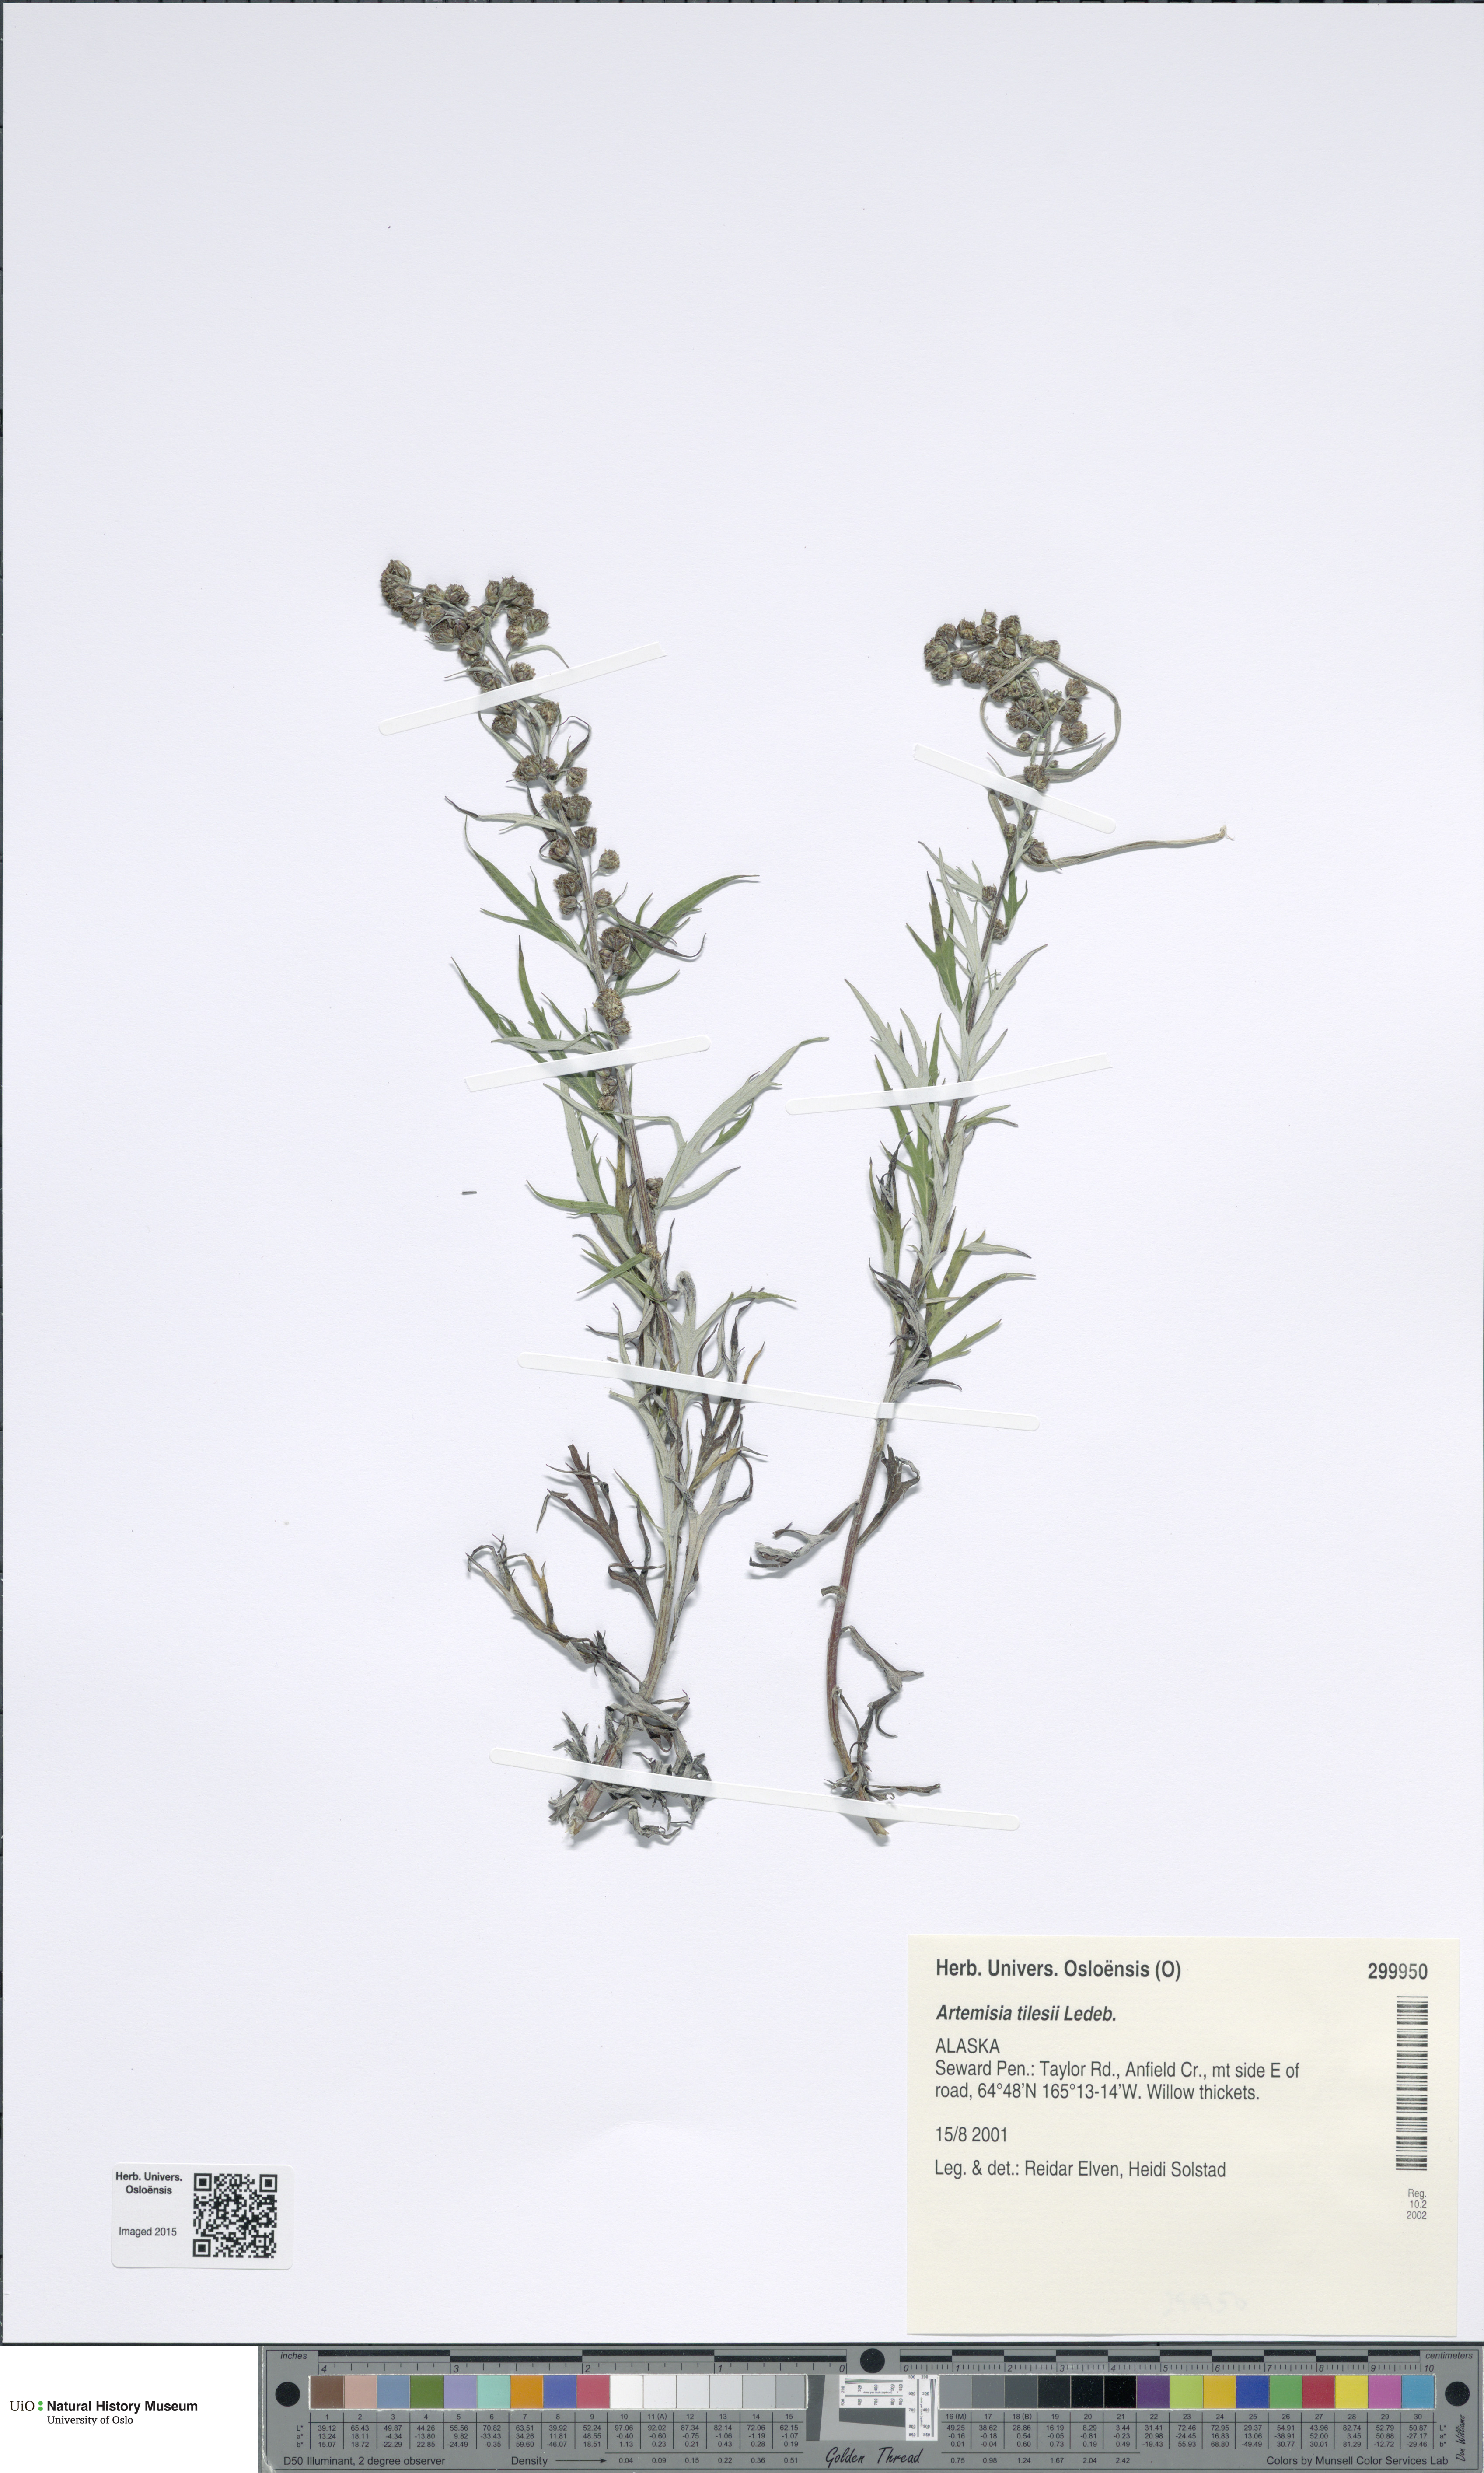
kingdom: Plantae
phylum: Tracheophyta
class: Magnoliopsida
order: Asterales
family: Asteraceae
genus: Artemisia
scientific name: Artemisia tilesii
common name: Aleutian mugwort
